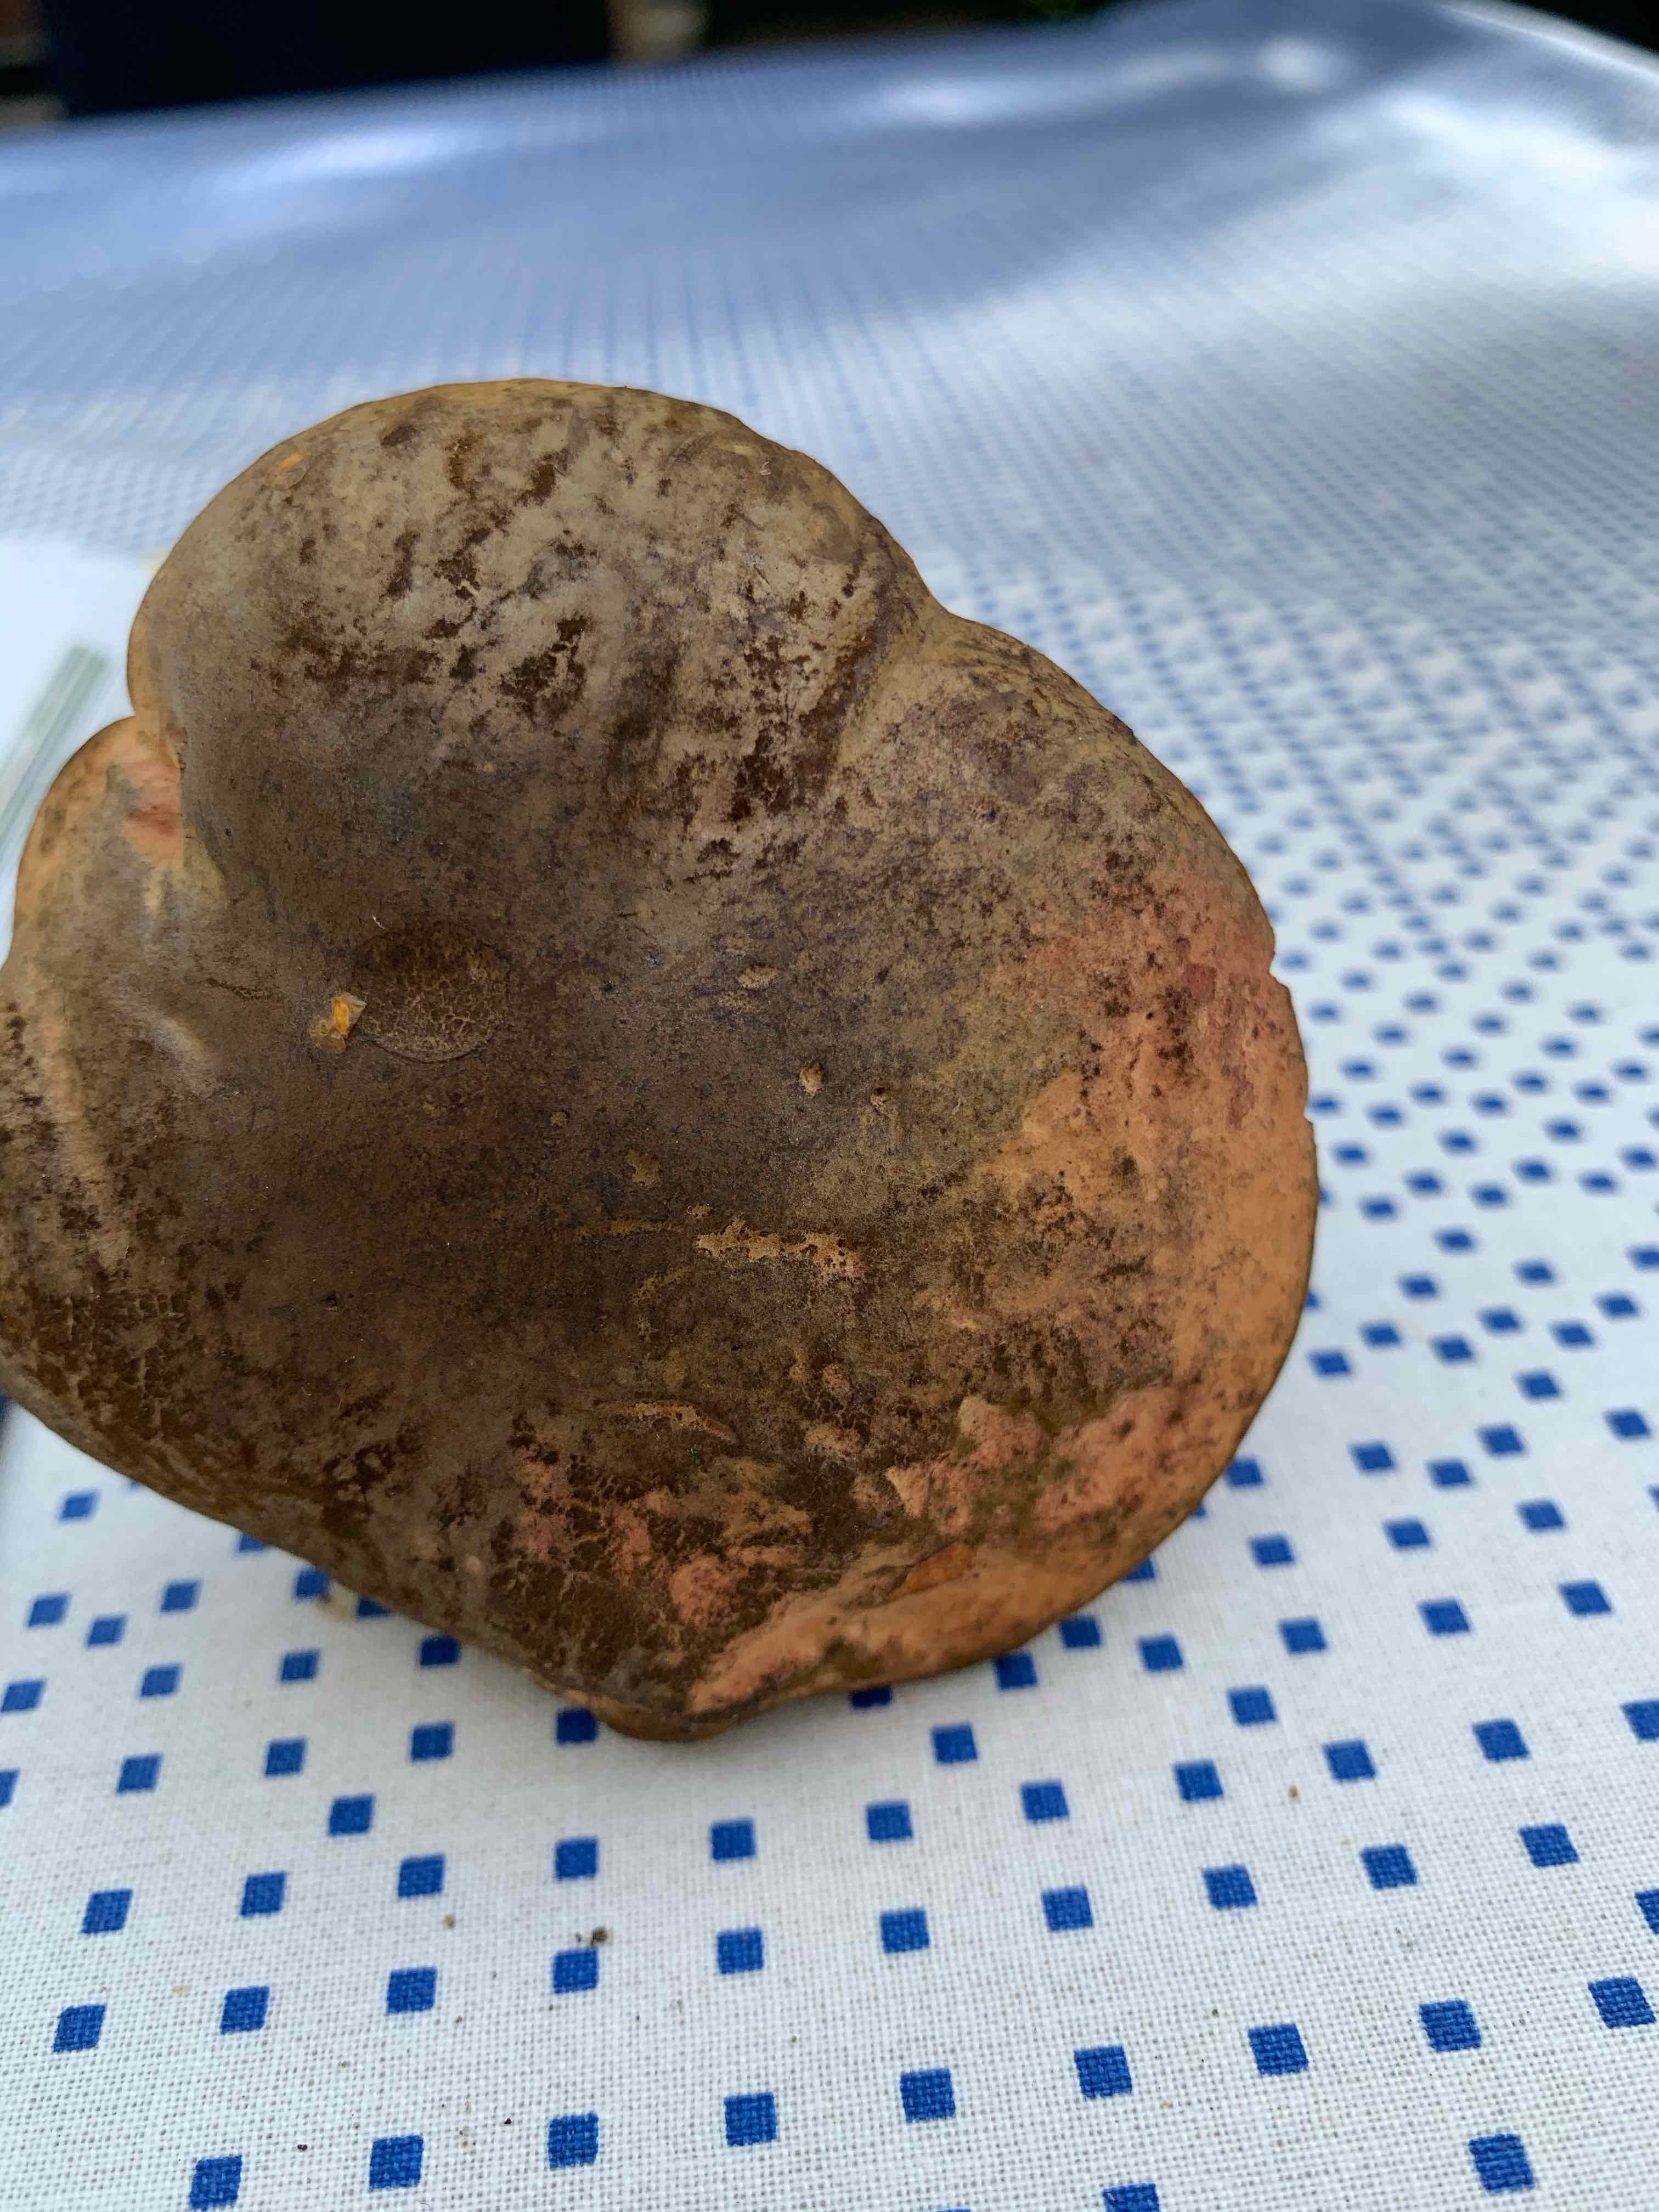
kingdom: Fungi
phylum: Basidiomycota
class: Agaricomycetes
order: Boletales
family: Boletaceae
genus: Suillellus
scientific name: Suillellus luridus
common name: netstokket indigorørhat
